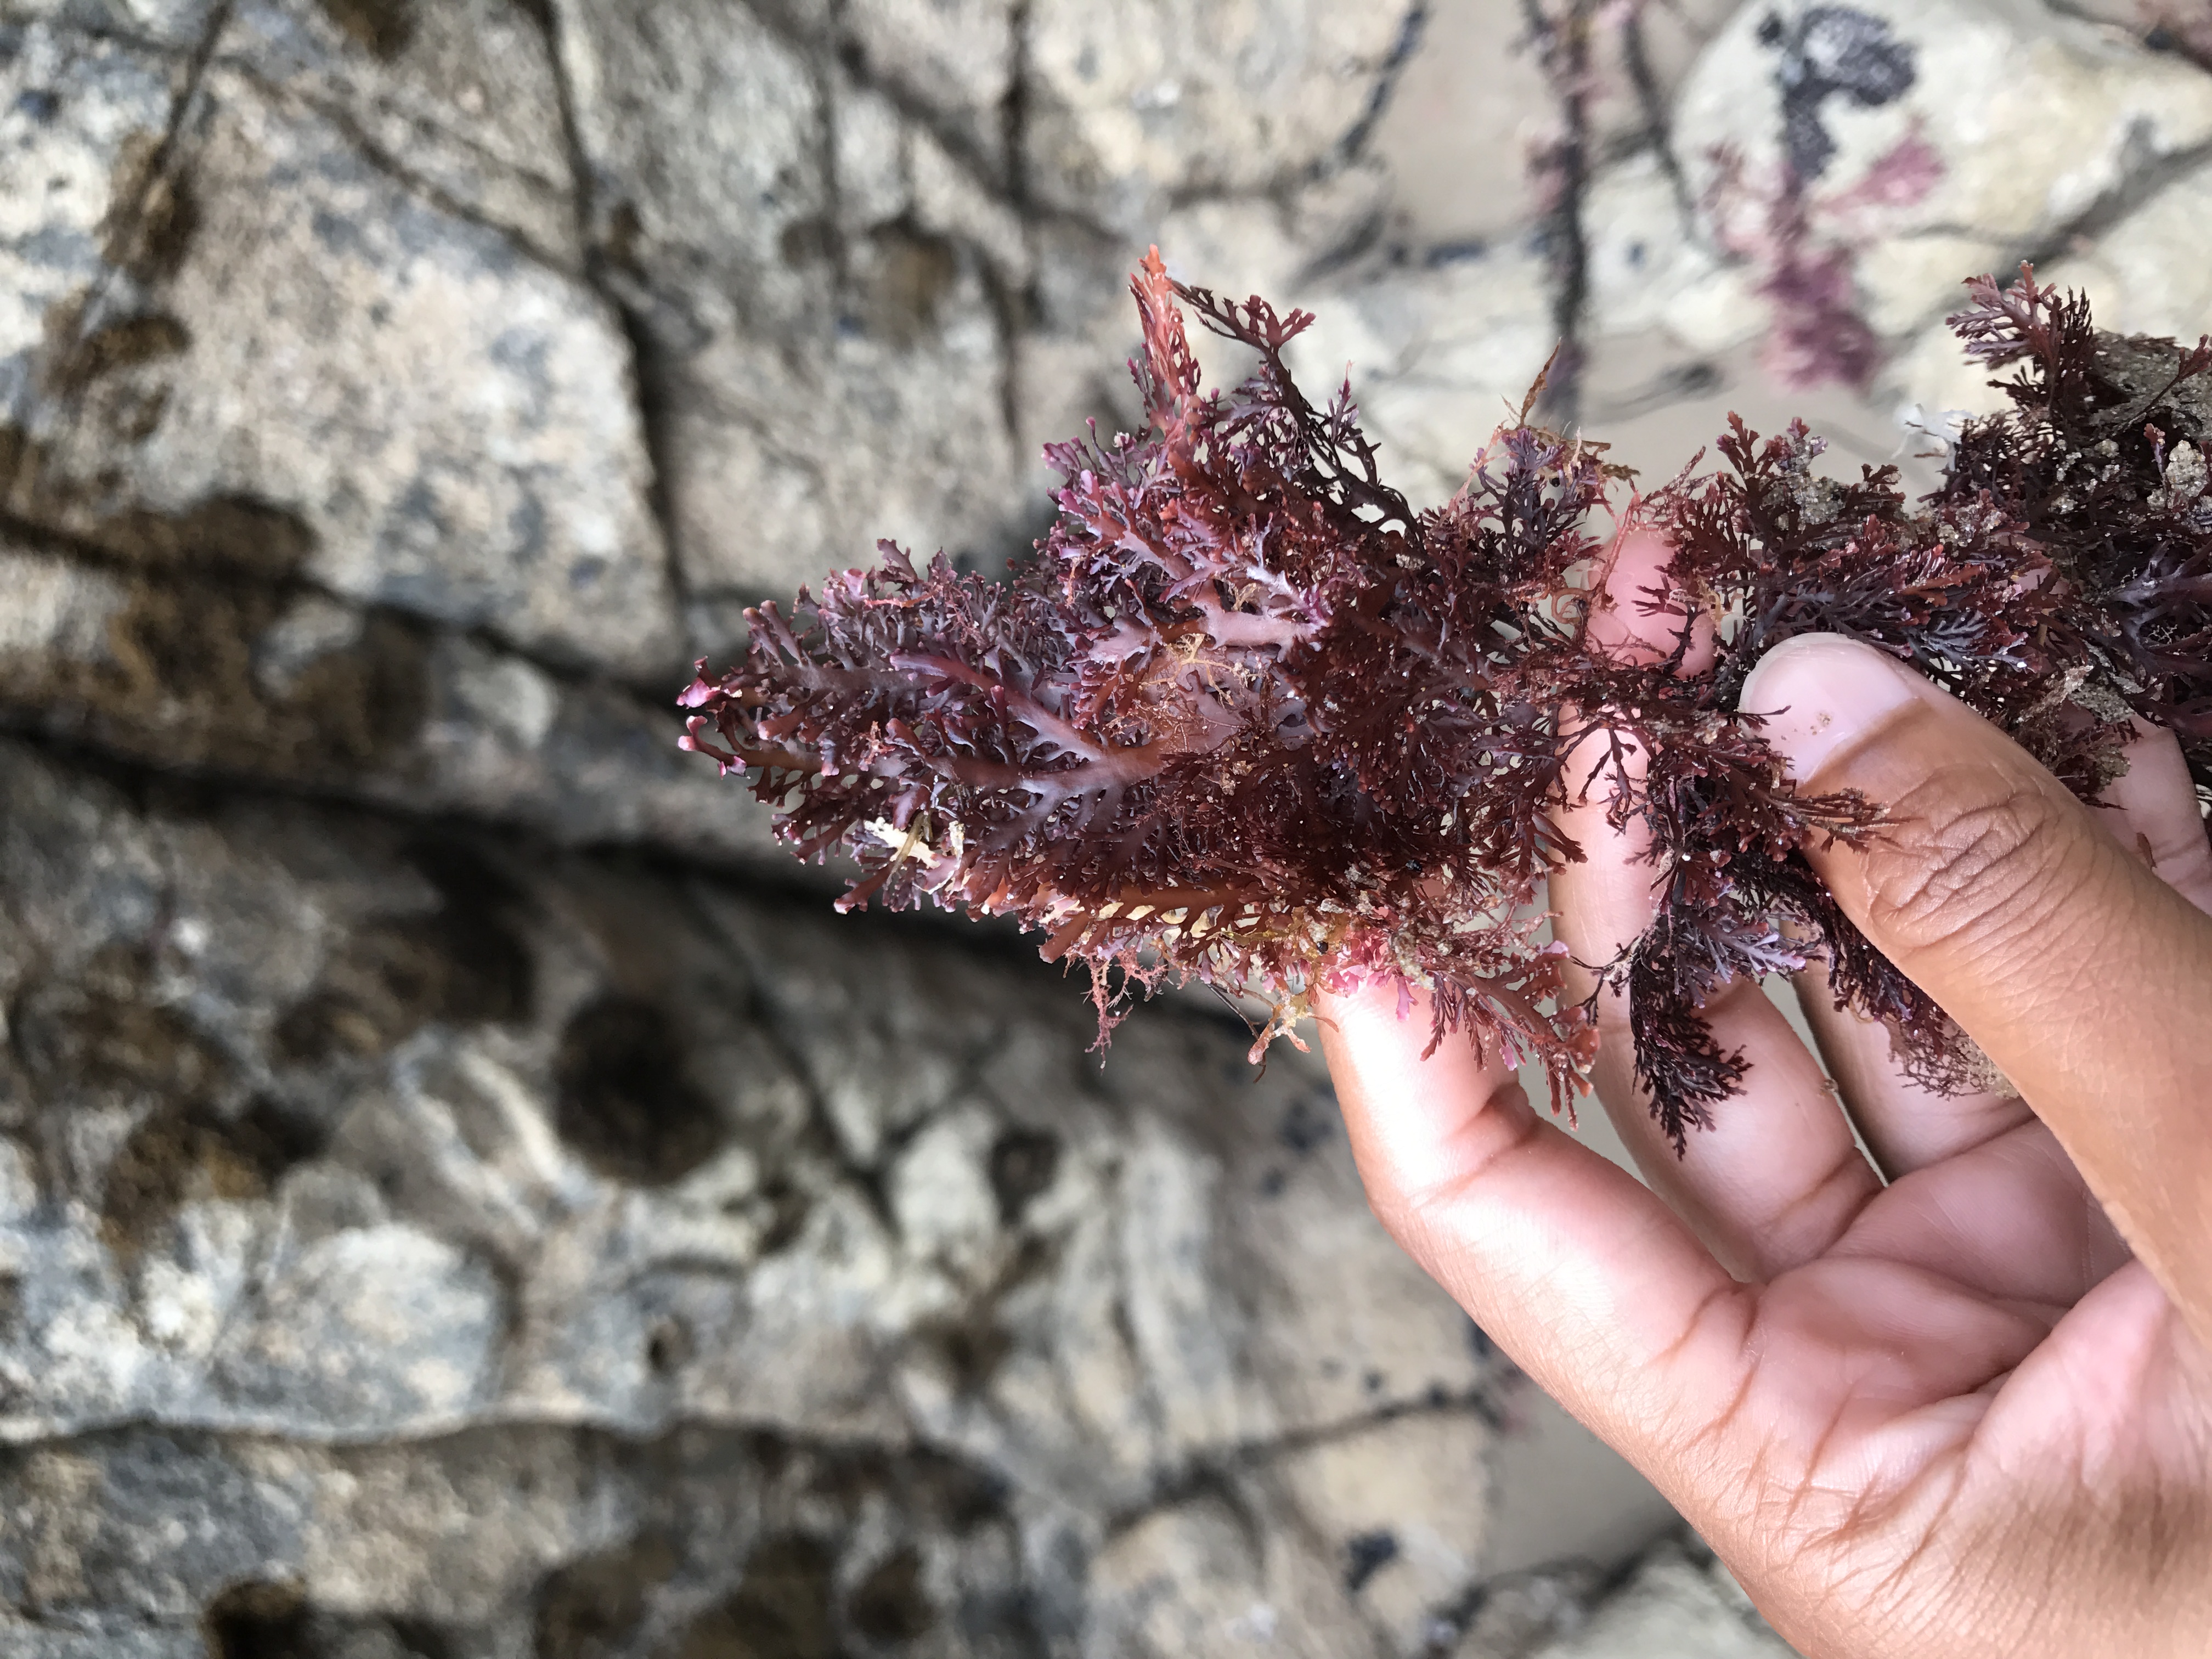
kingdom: Plantae
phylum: Rhodophyta
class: Florideophyceae
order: Gelidiales
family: Pterocladiaceae
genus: Pterocladia
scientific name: Pterocladia lucida
